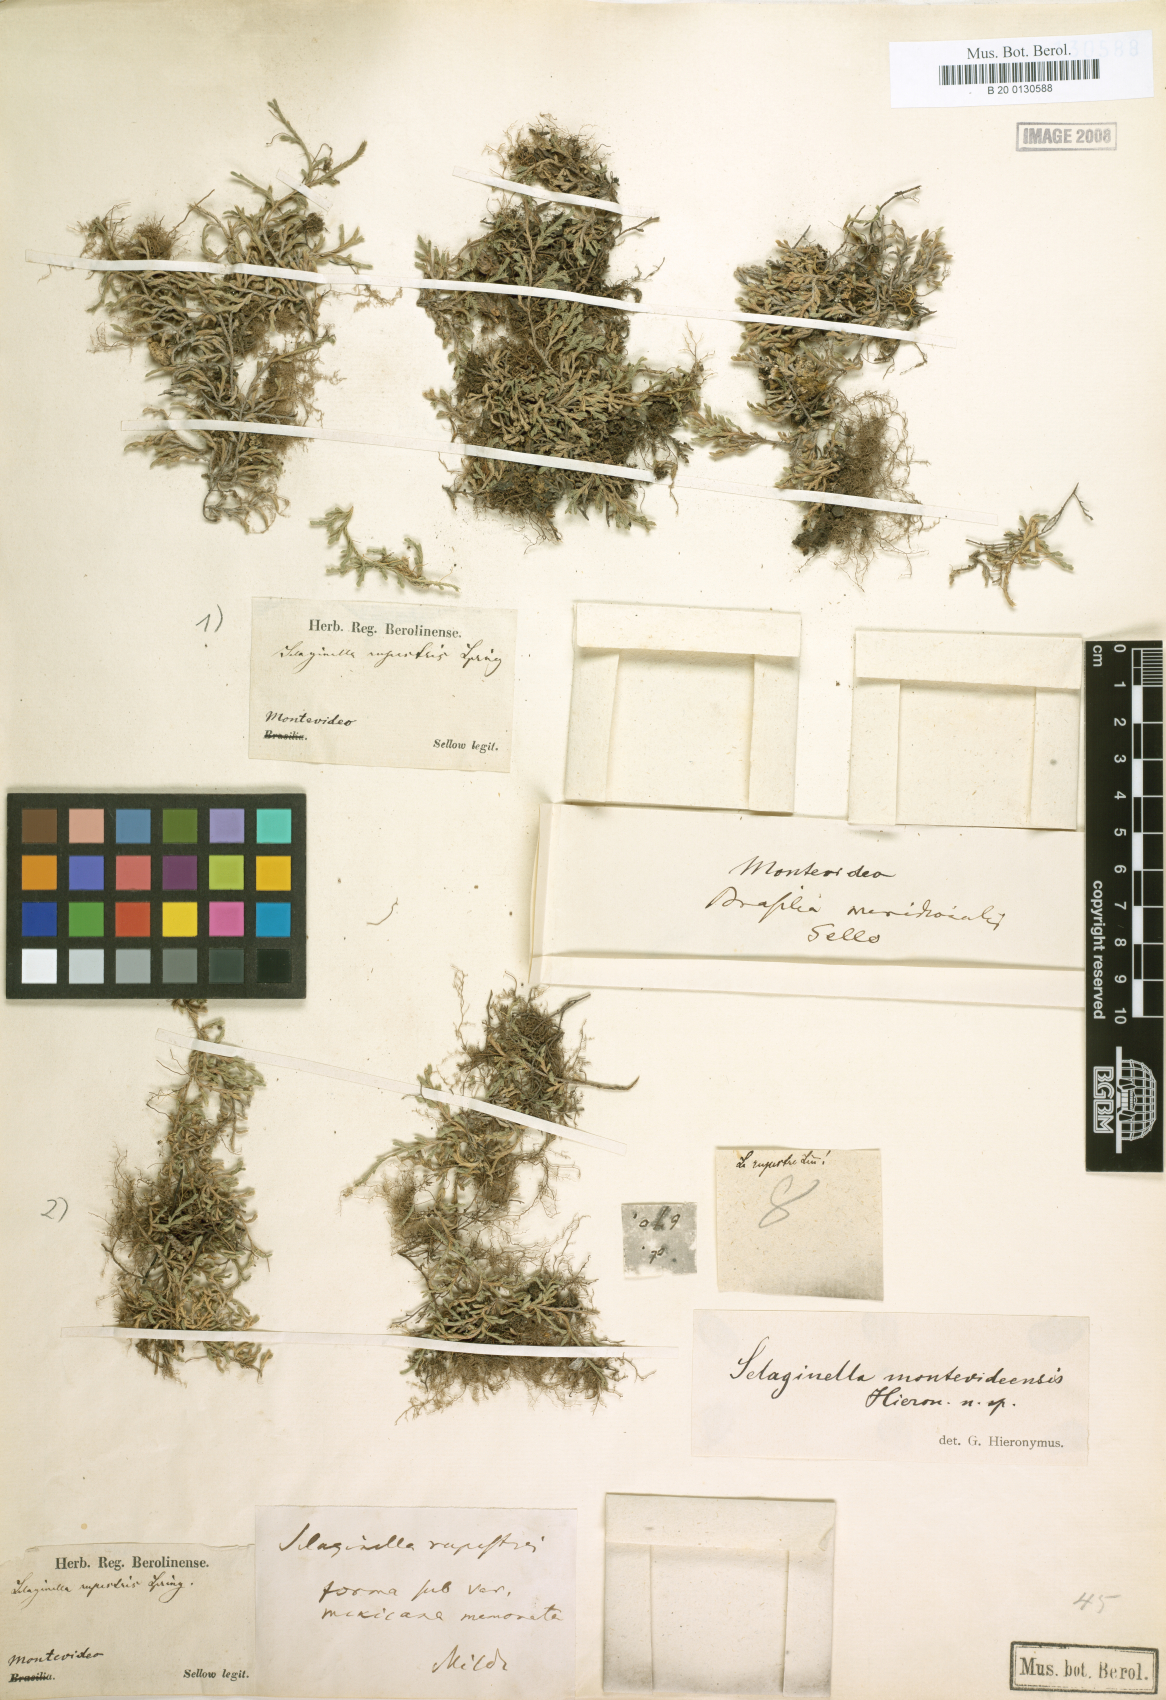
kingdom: Plantae
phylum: Tracheophyta
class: Lycopodiopsida
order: Selaginellales
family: Selaginellaceae
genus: Selaginella
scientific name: Selaginella sellowii
